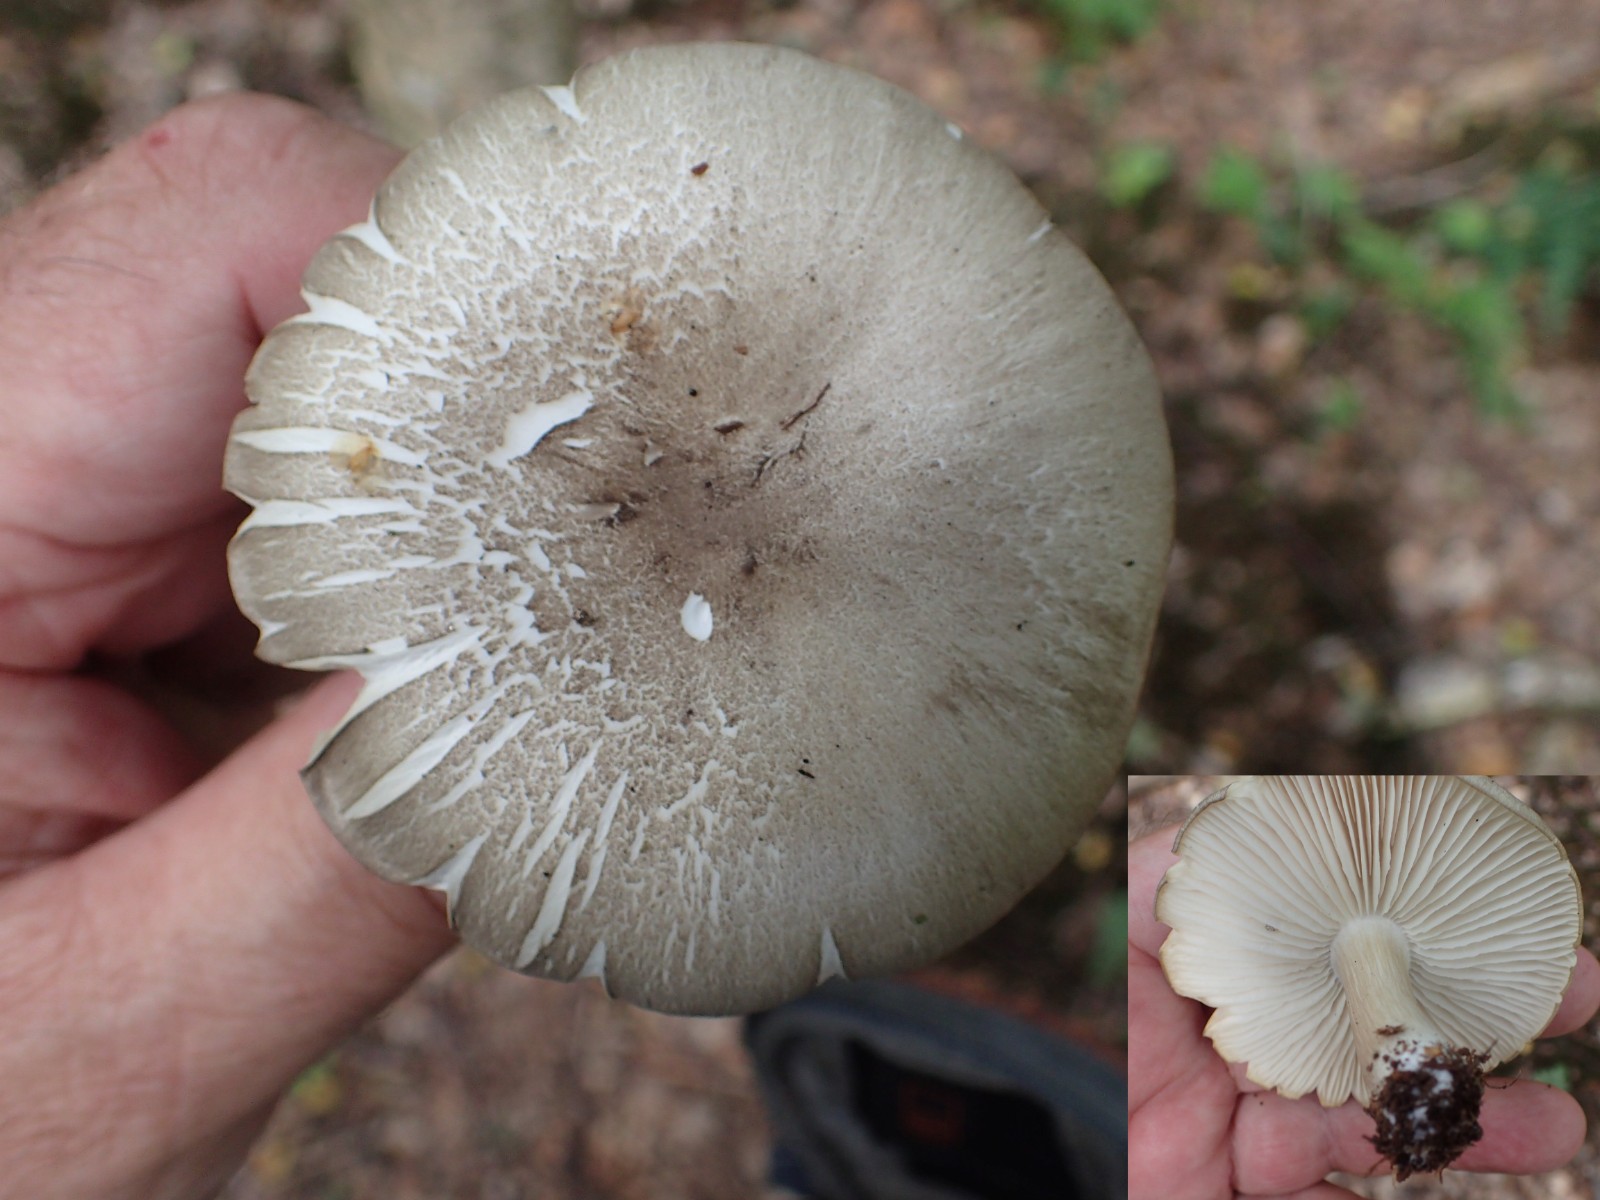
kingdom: Fungi
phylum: Basidiomycota
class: Agaricomycetes
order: Agaricales
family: Tricholomataceae
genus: Megacollybia
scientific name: Megacollybia platyphylla
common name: bredbladet væbnerhat
